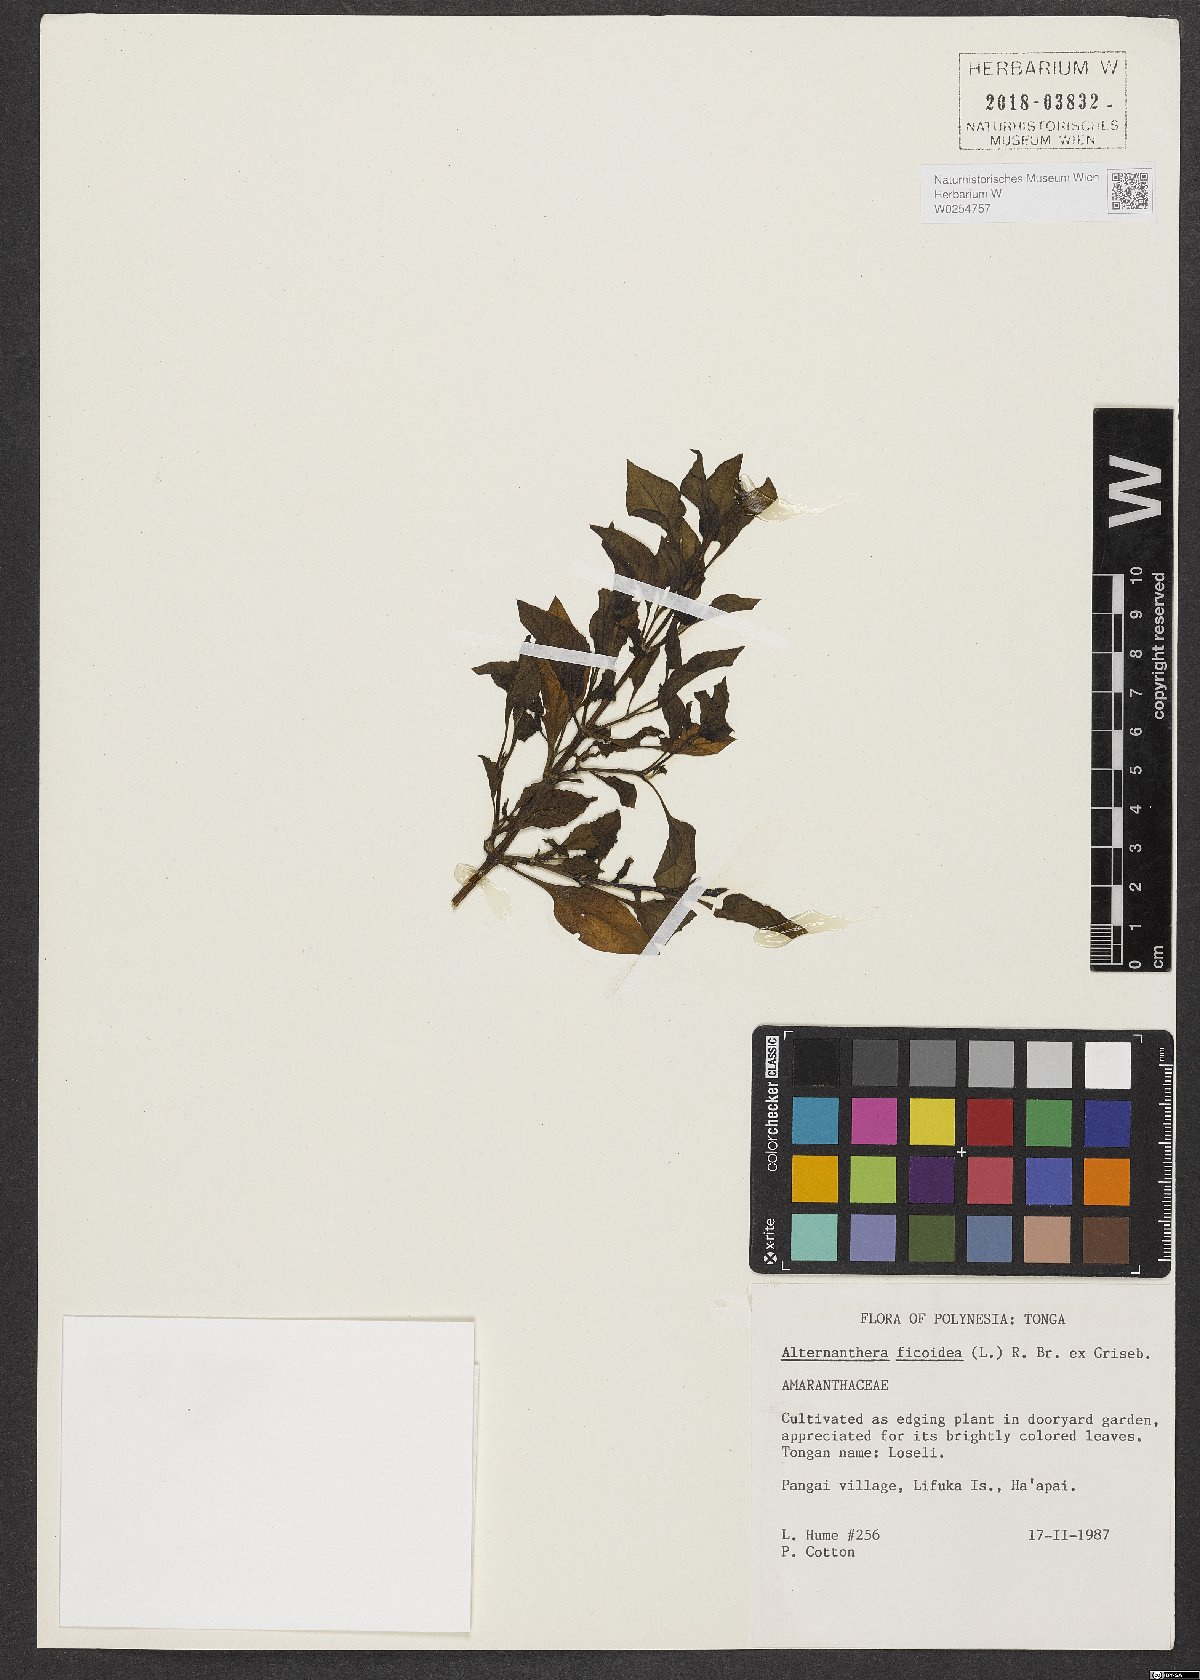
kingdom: Plantae
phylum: Tracheophyta
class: Magnoliopsida
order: Caryophyllales
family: Amaranthaceae
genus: Alternanthera
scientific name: Alternanthera ficoidea
